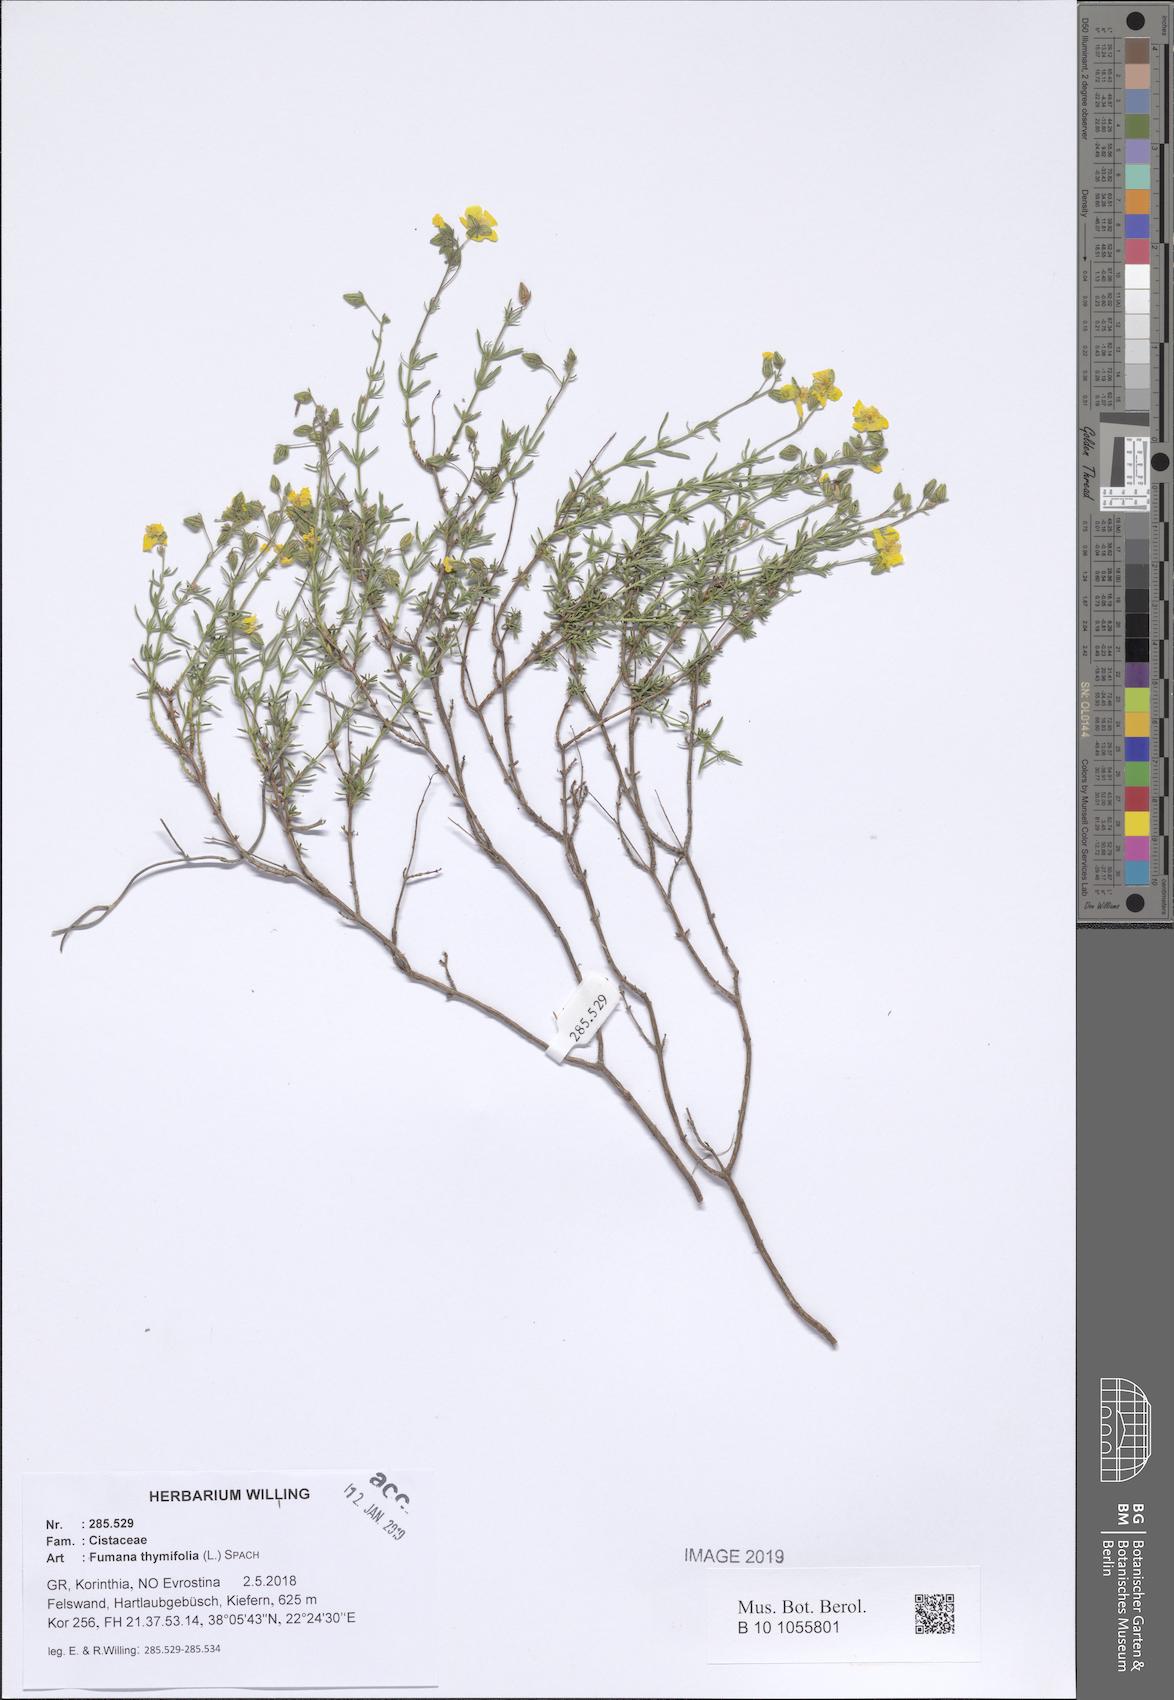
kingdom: Plantae
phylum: Tracheophyta
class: Magnoliopsida
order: Malvales
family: Cistaceae
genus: Fumana
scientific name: Fumana thymifolia
